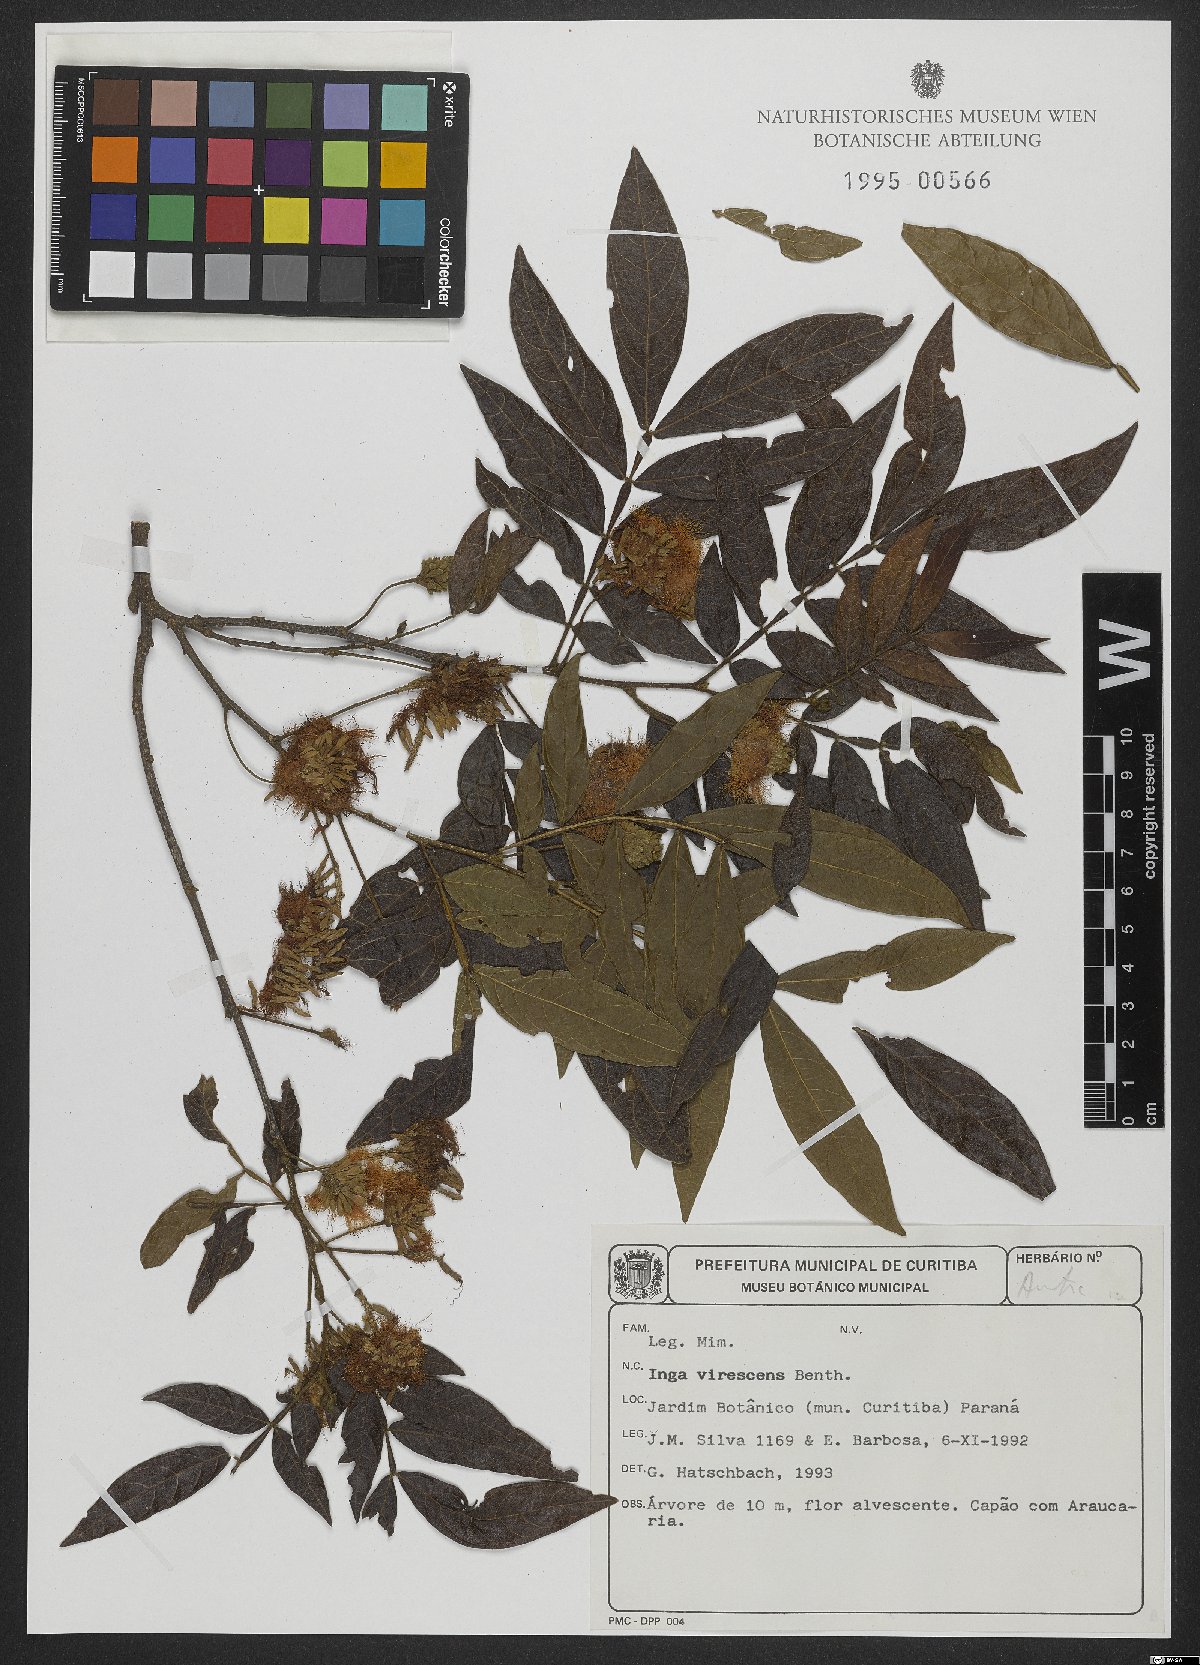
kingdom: Plantae
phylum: Tracheophyta
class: Magnoliopsida
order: Fabales
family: Fabaceae
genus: Inga
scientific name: Inga virescens
